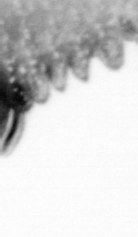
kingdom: Animalia
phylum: Annelida
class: Polychaeta
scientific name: Polychaeta
